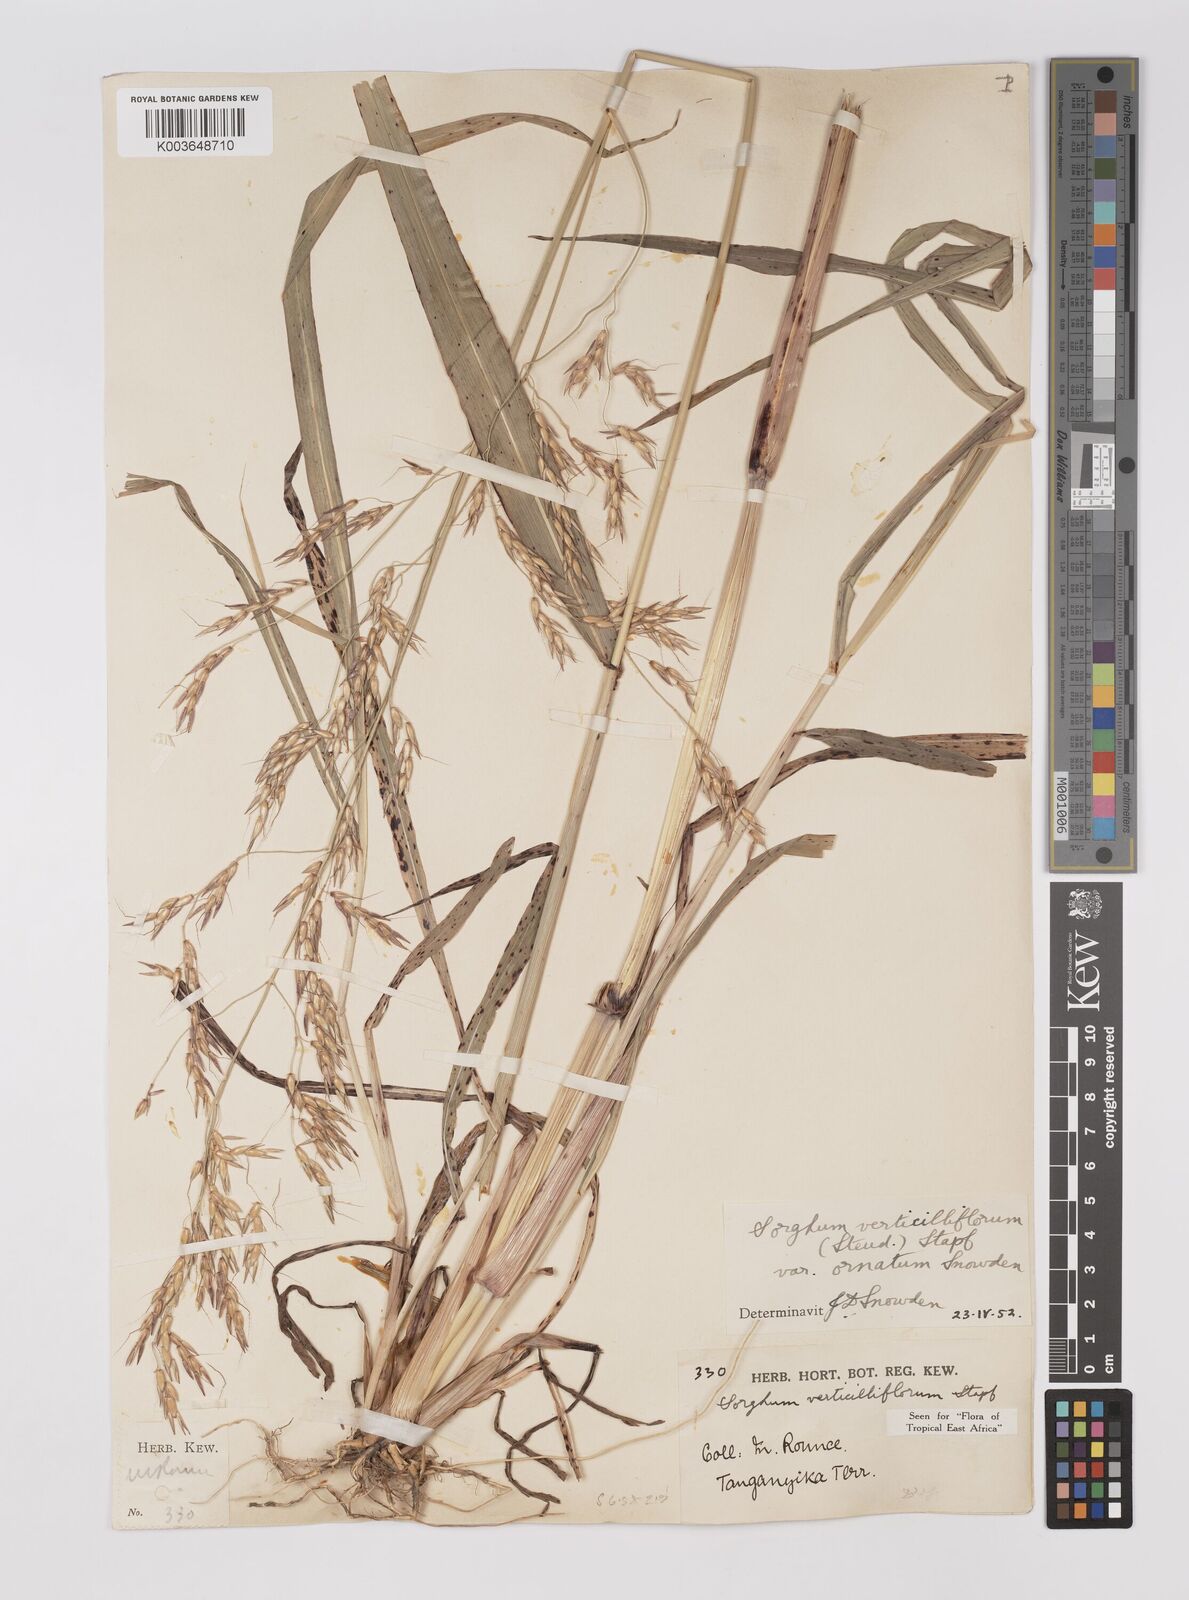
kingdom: Plantae
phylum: Tracheophyta
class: Liliopsida
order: Poales
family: Poaceae
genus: Sorghum
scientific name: Sorghum arundinaceum
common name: Sorghum
